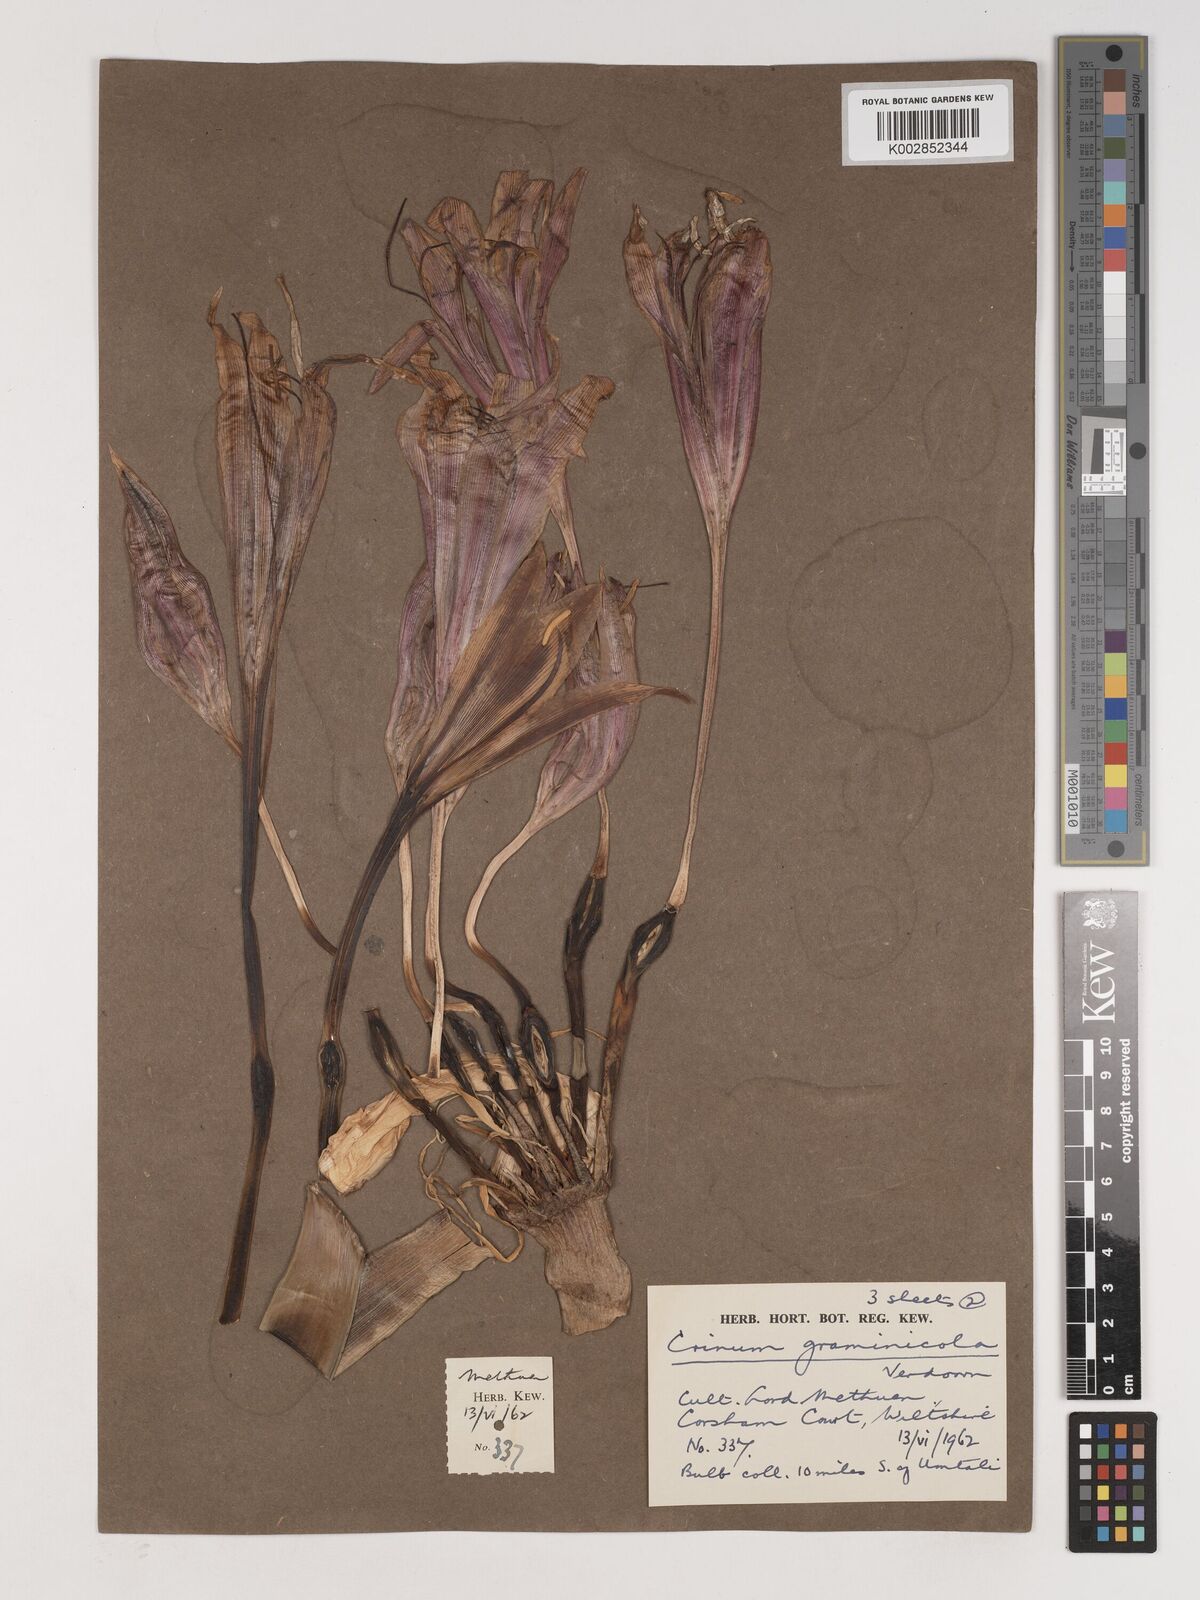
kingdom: Plantae
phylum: Tracheophyta
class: Liliopsida
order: Asparagales
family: Amaryllidaceae
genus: Crinum
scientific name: Crinum graminicola
